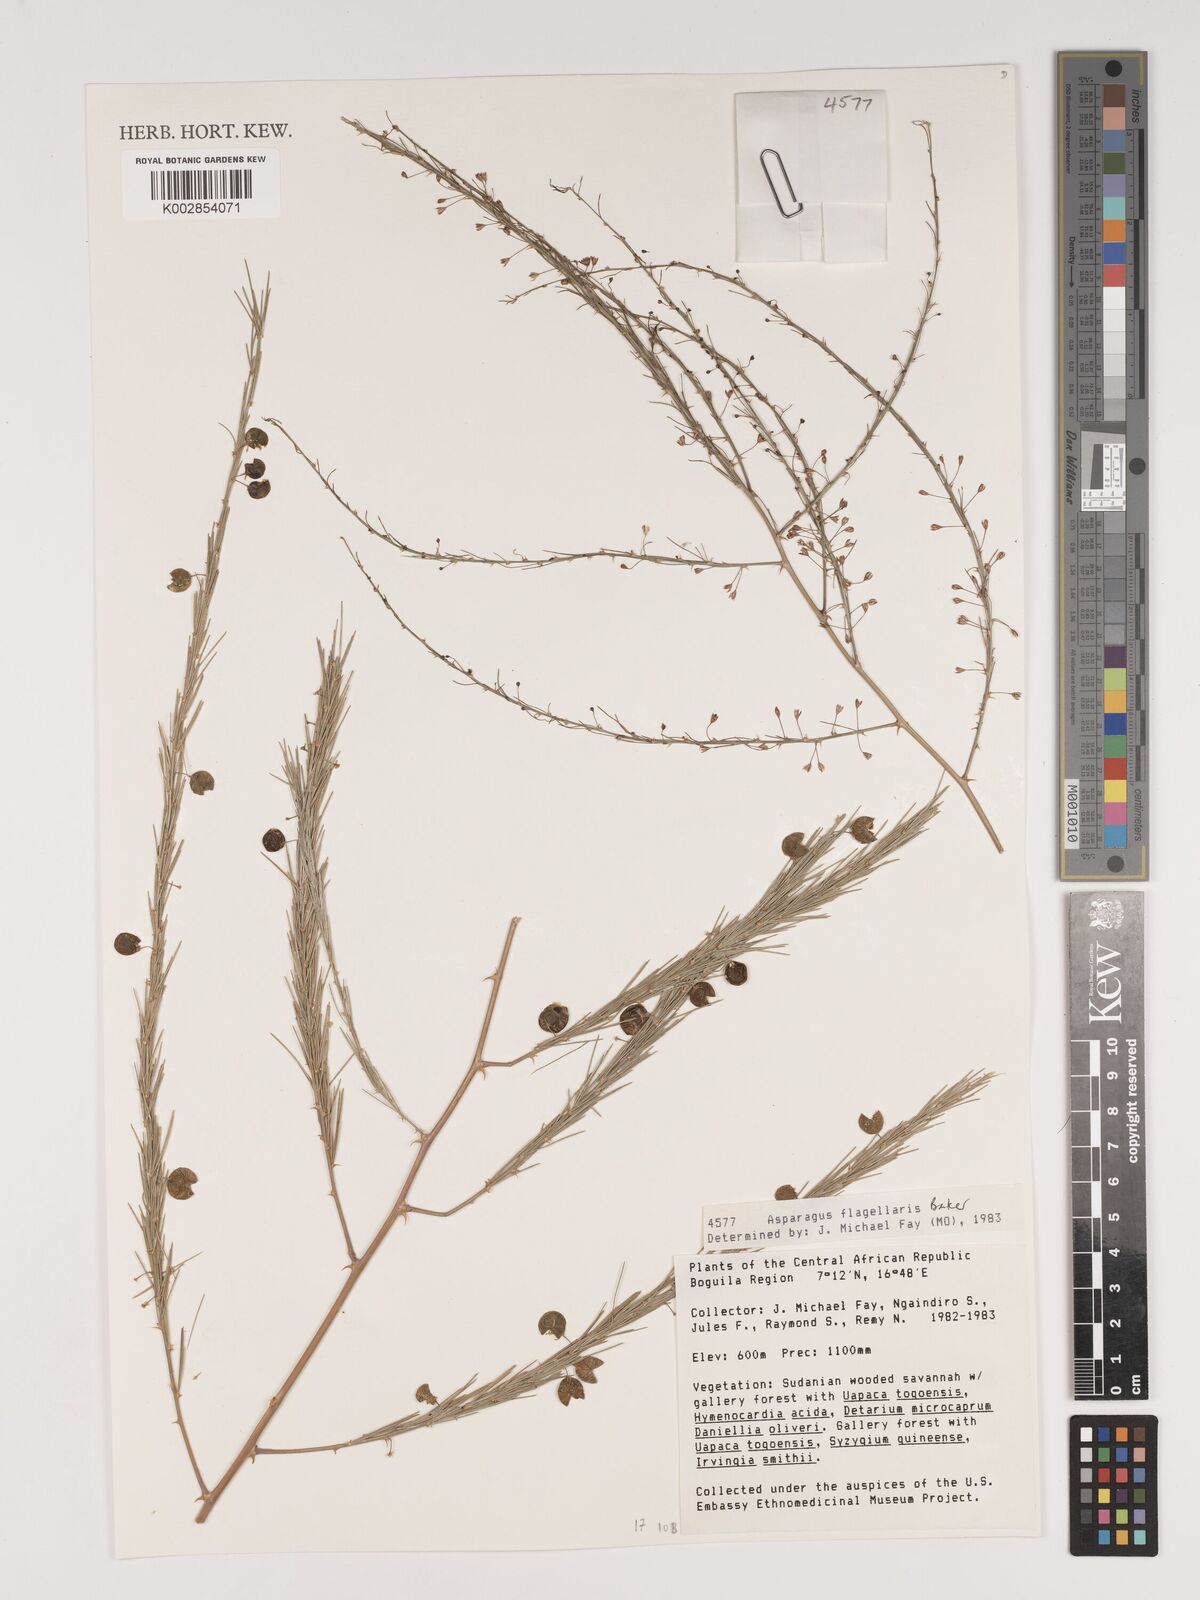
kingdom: Plantae
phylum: Tracheophyta
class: Liliopsida
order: Asparagales
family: Asparagaceae
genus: Asparagus
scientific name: Asparagus flagellaris
